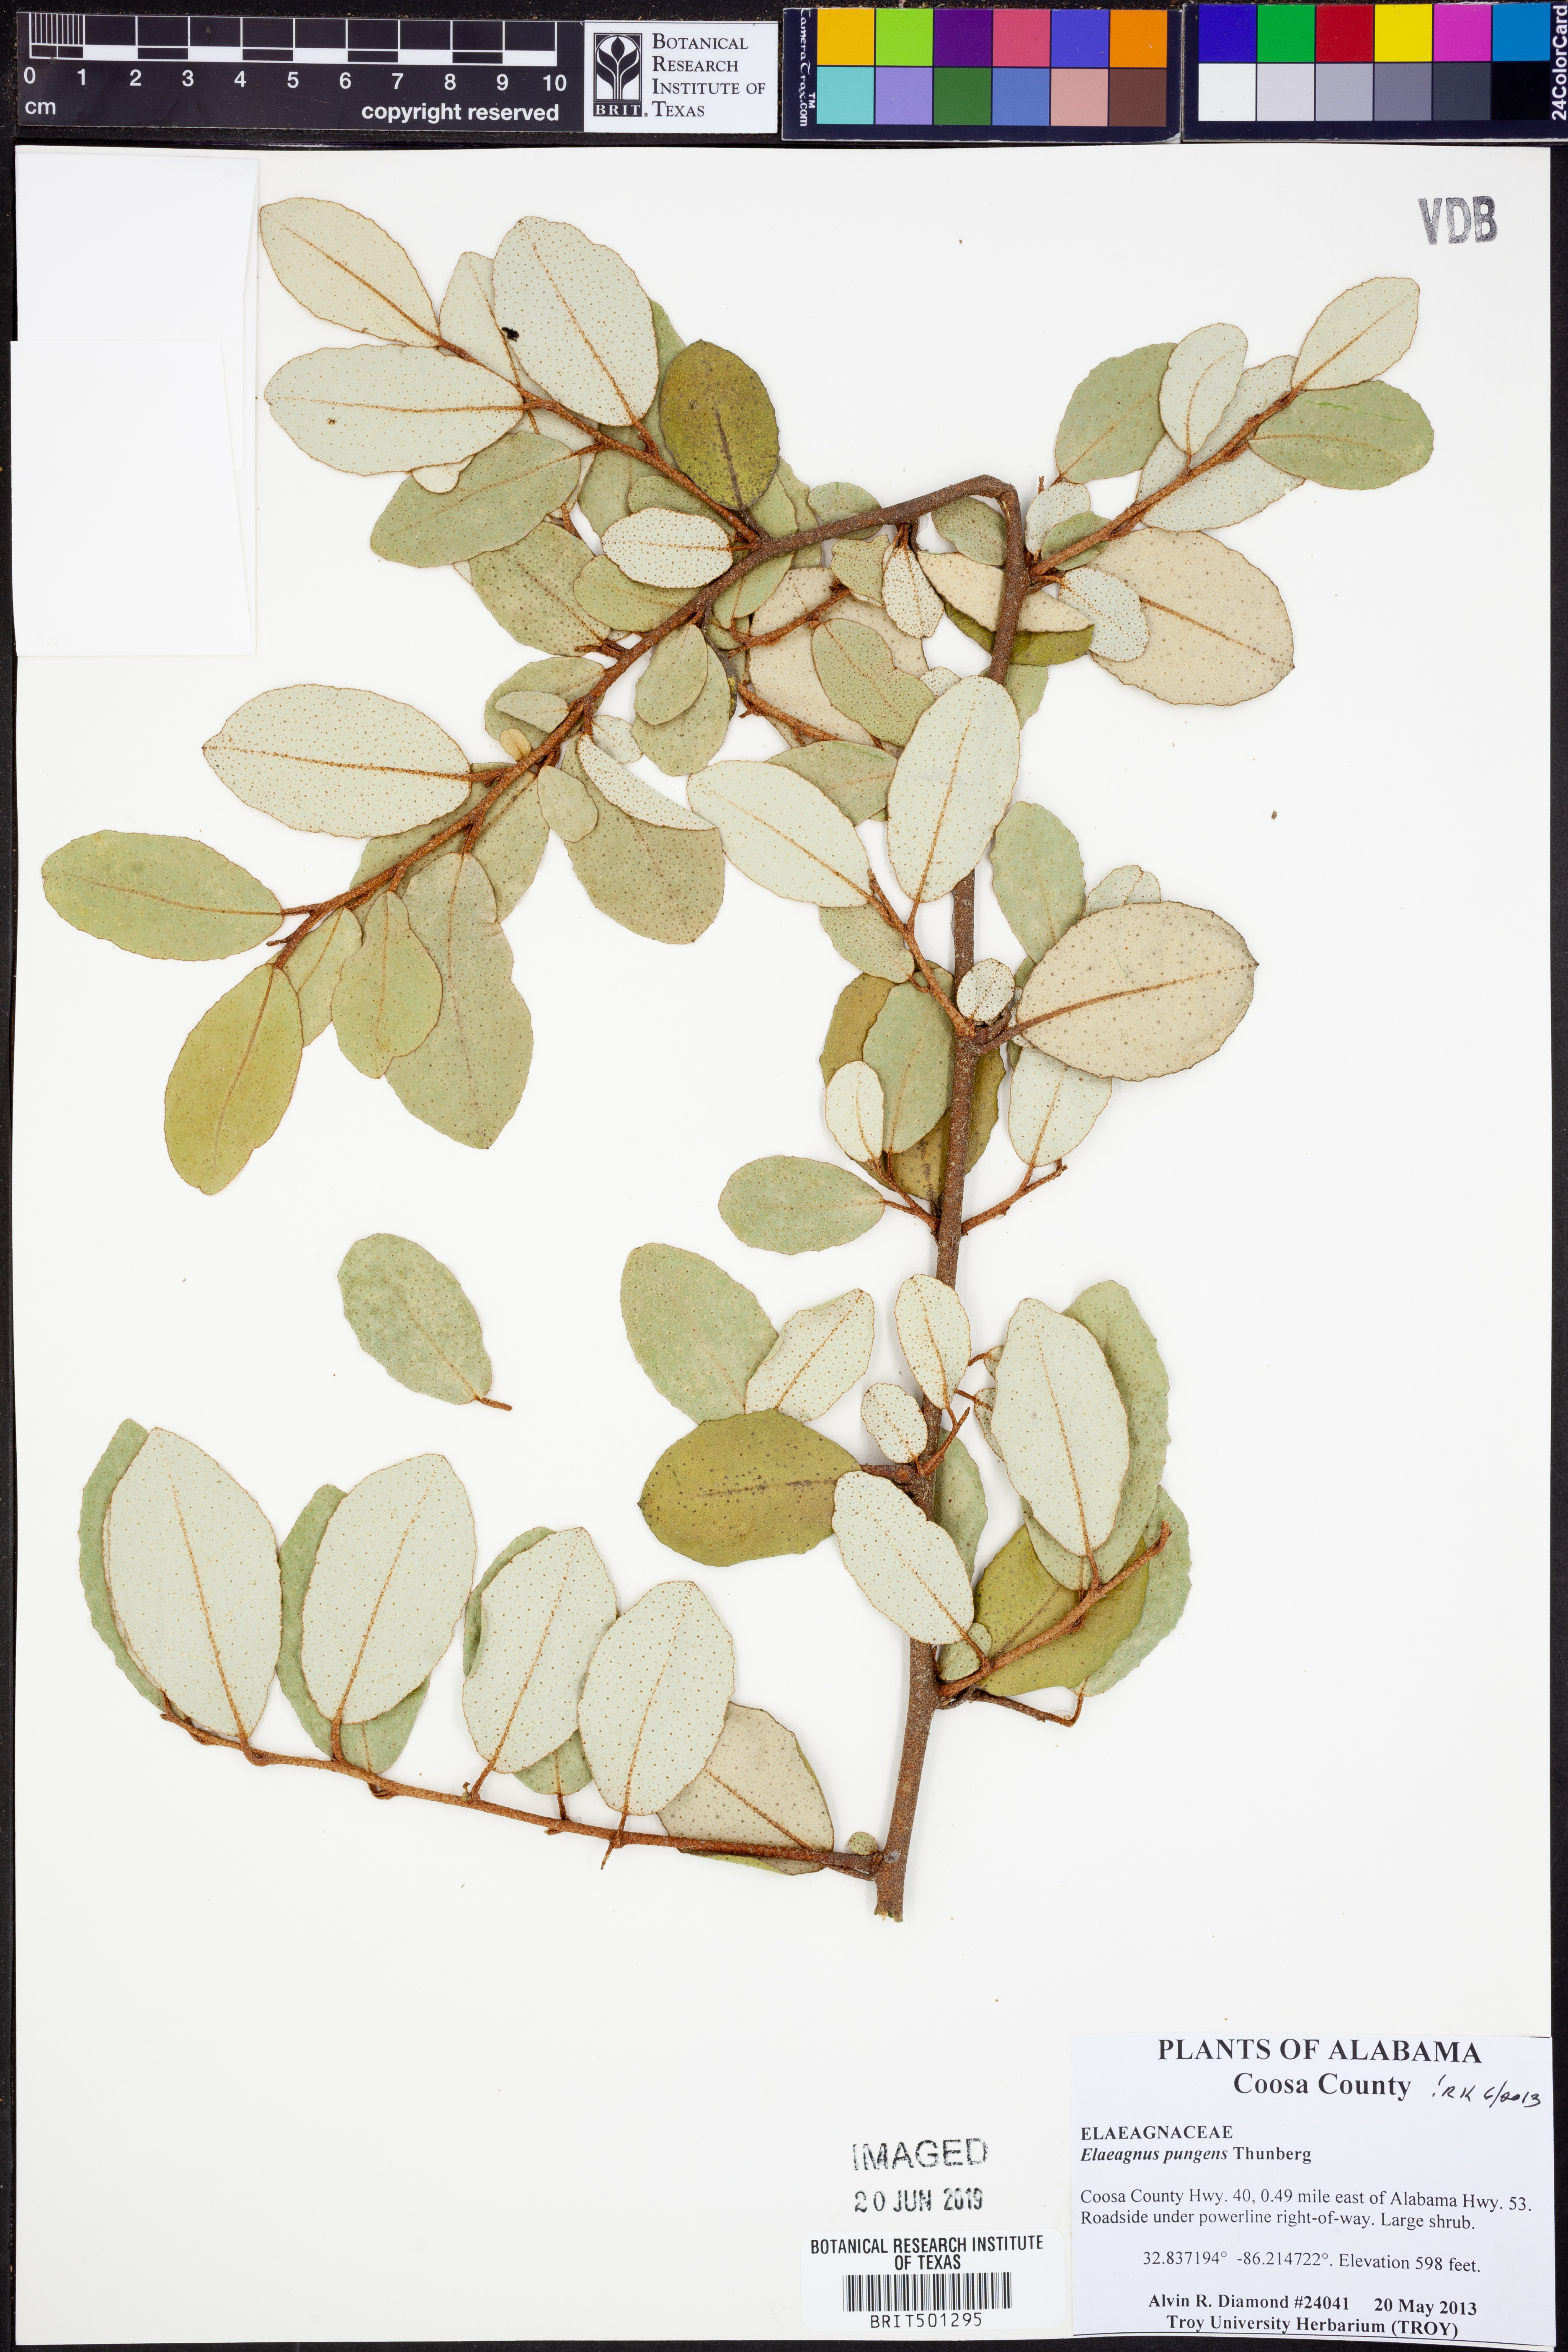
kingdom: Plantae
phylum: Tracheophyta
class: Magnoliopsida
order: Rosales
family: Elaeagnaceae
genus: Elaeagnus
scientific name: Elaeagnus pungens
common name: Spiny oleaster
